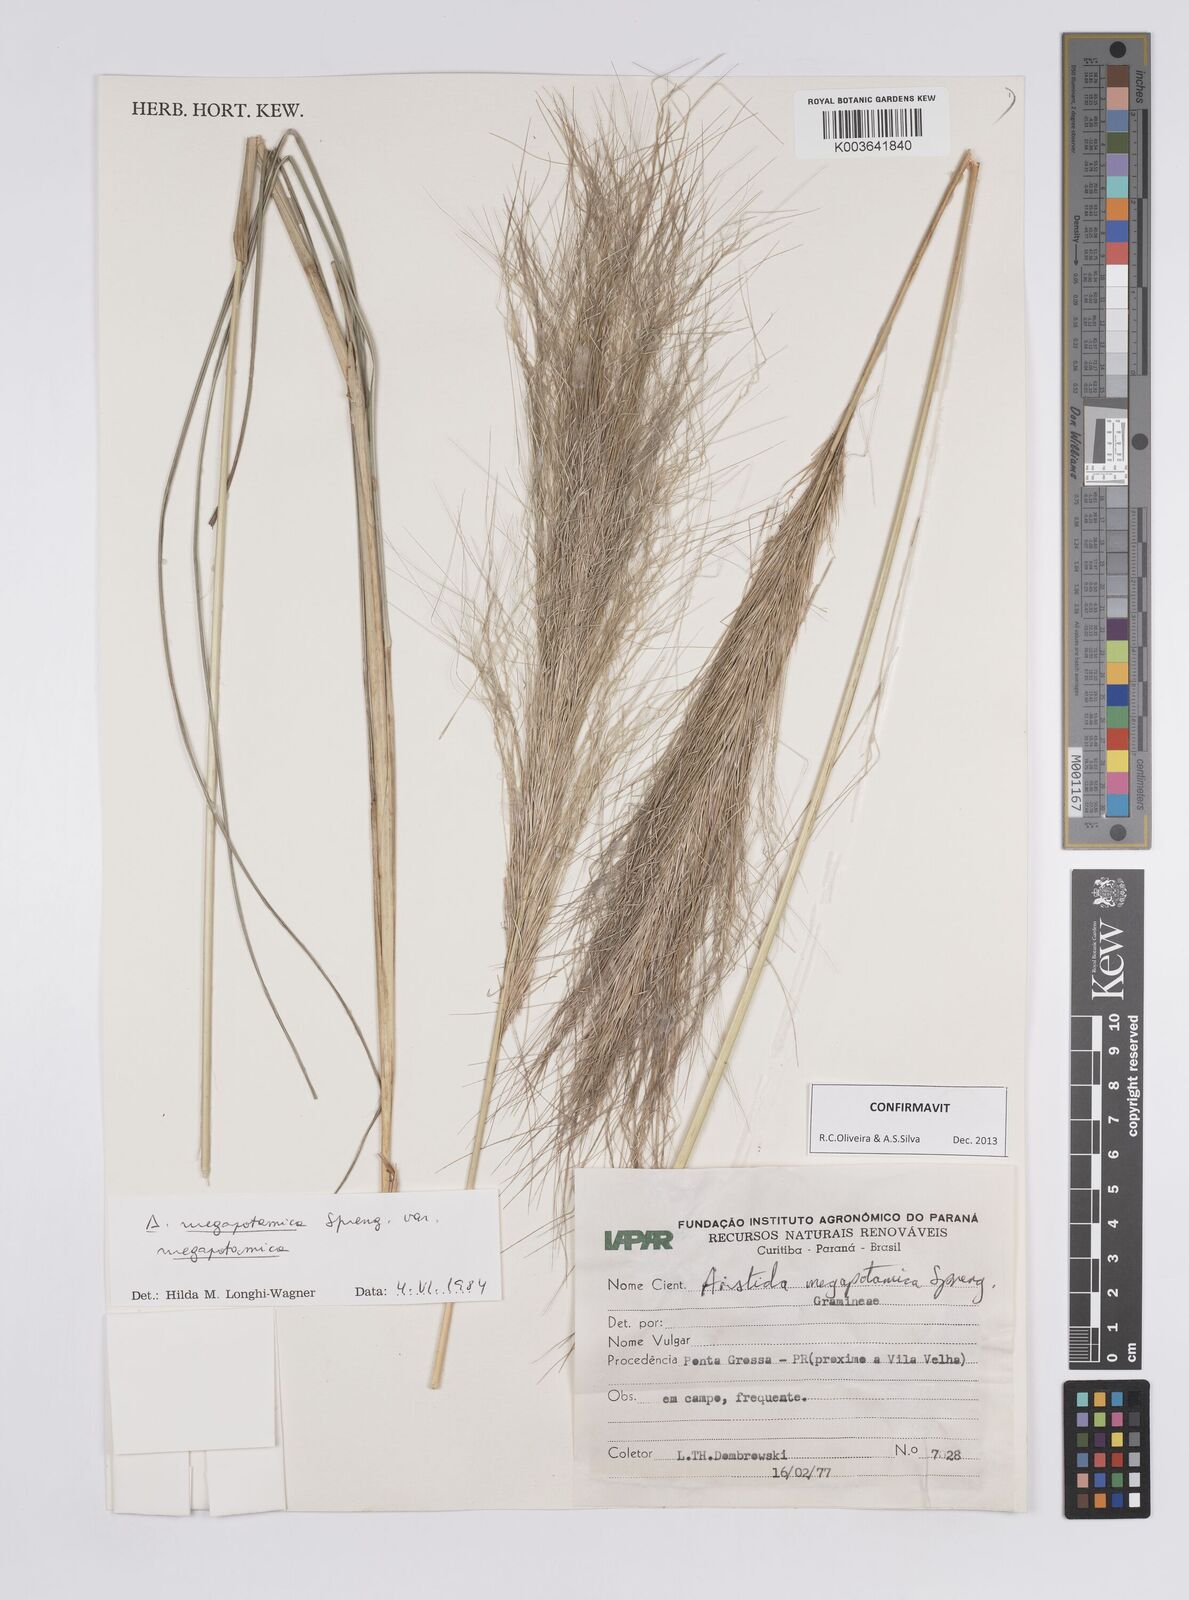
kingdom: Plantae
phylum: Tracheophyta
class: Liliopsida
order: Poales
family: Poaceae
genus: Aristida
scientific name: Aristida megapotamica
